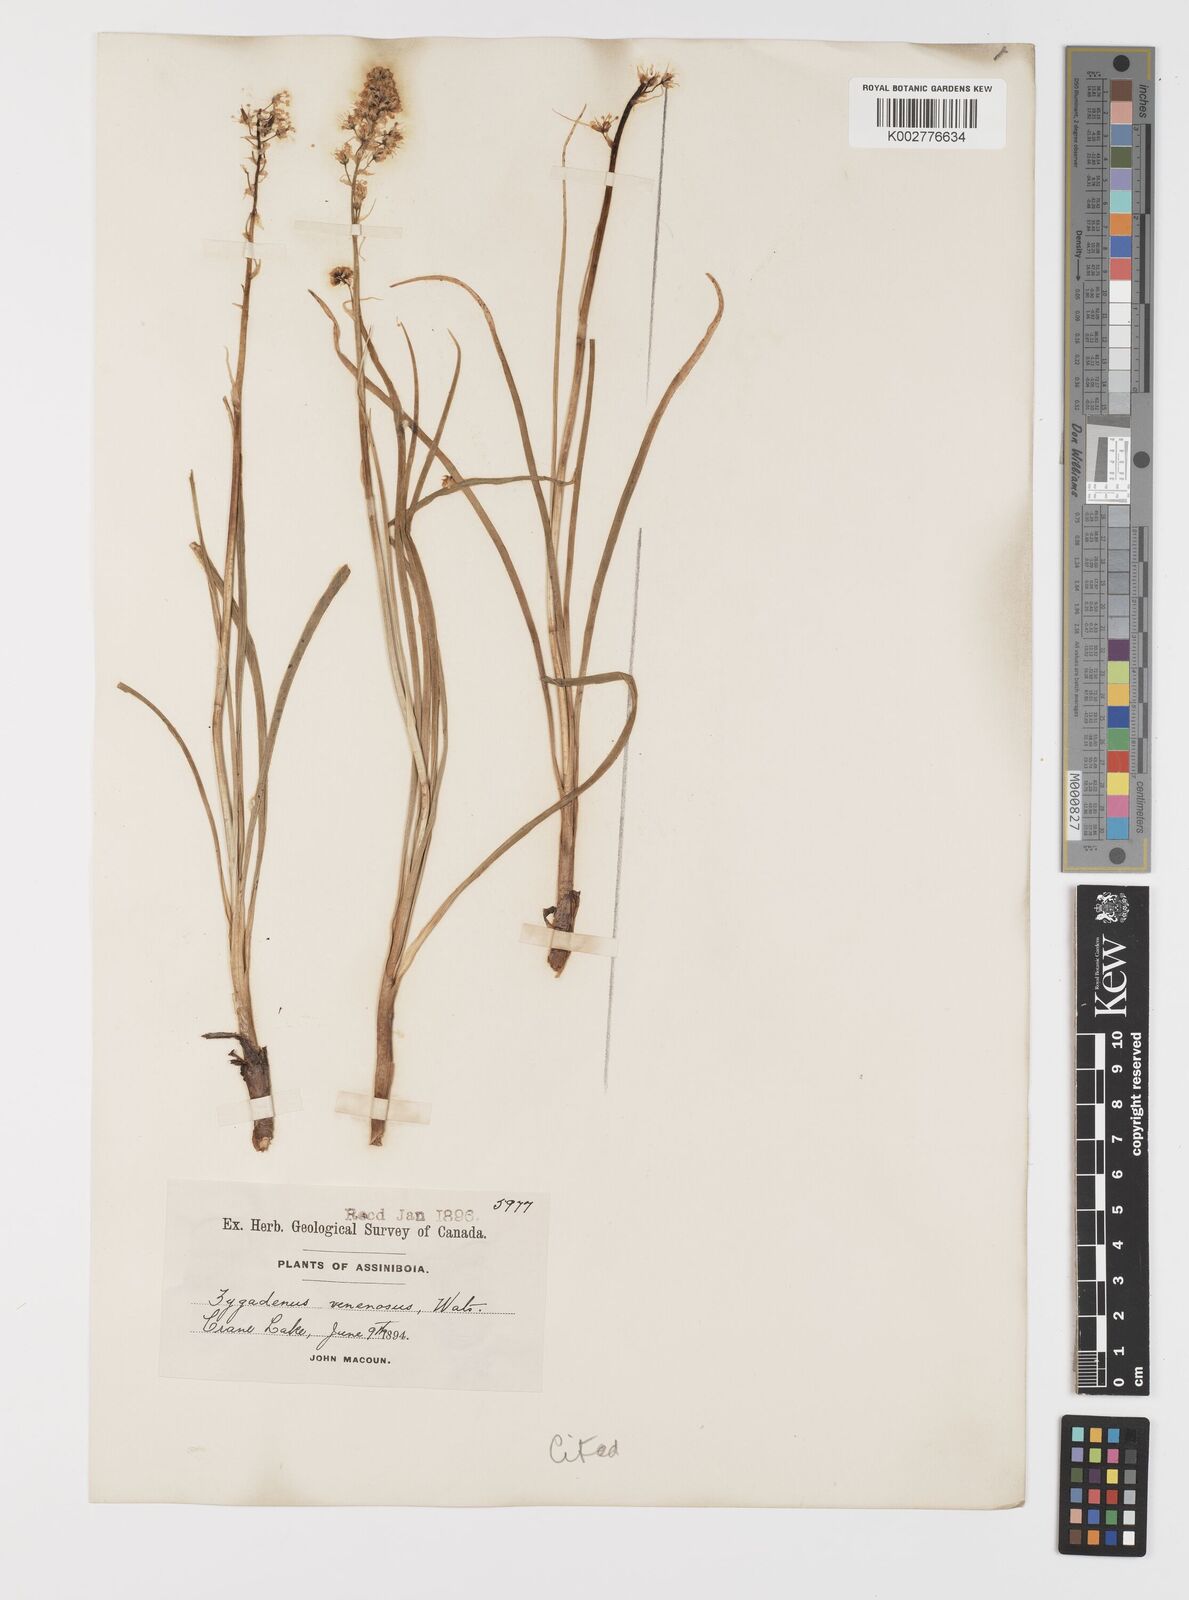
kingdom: Plantae
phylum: Tracheophyta
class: Liliopsida
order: Liliales
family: Melanthiaceae
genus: Toxicoscordion
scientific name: Toxicoscordion venenosum
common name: Meadow death camas
